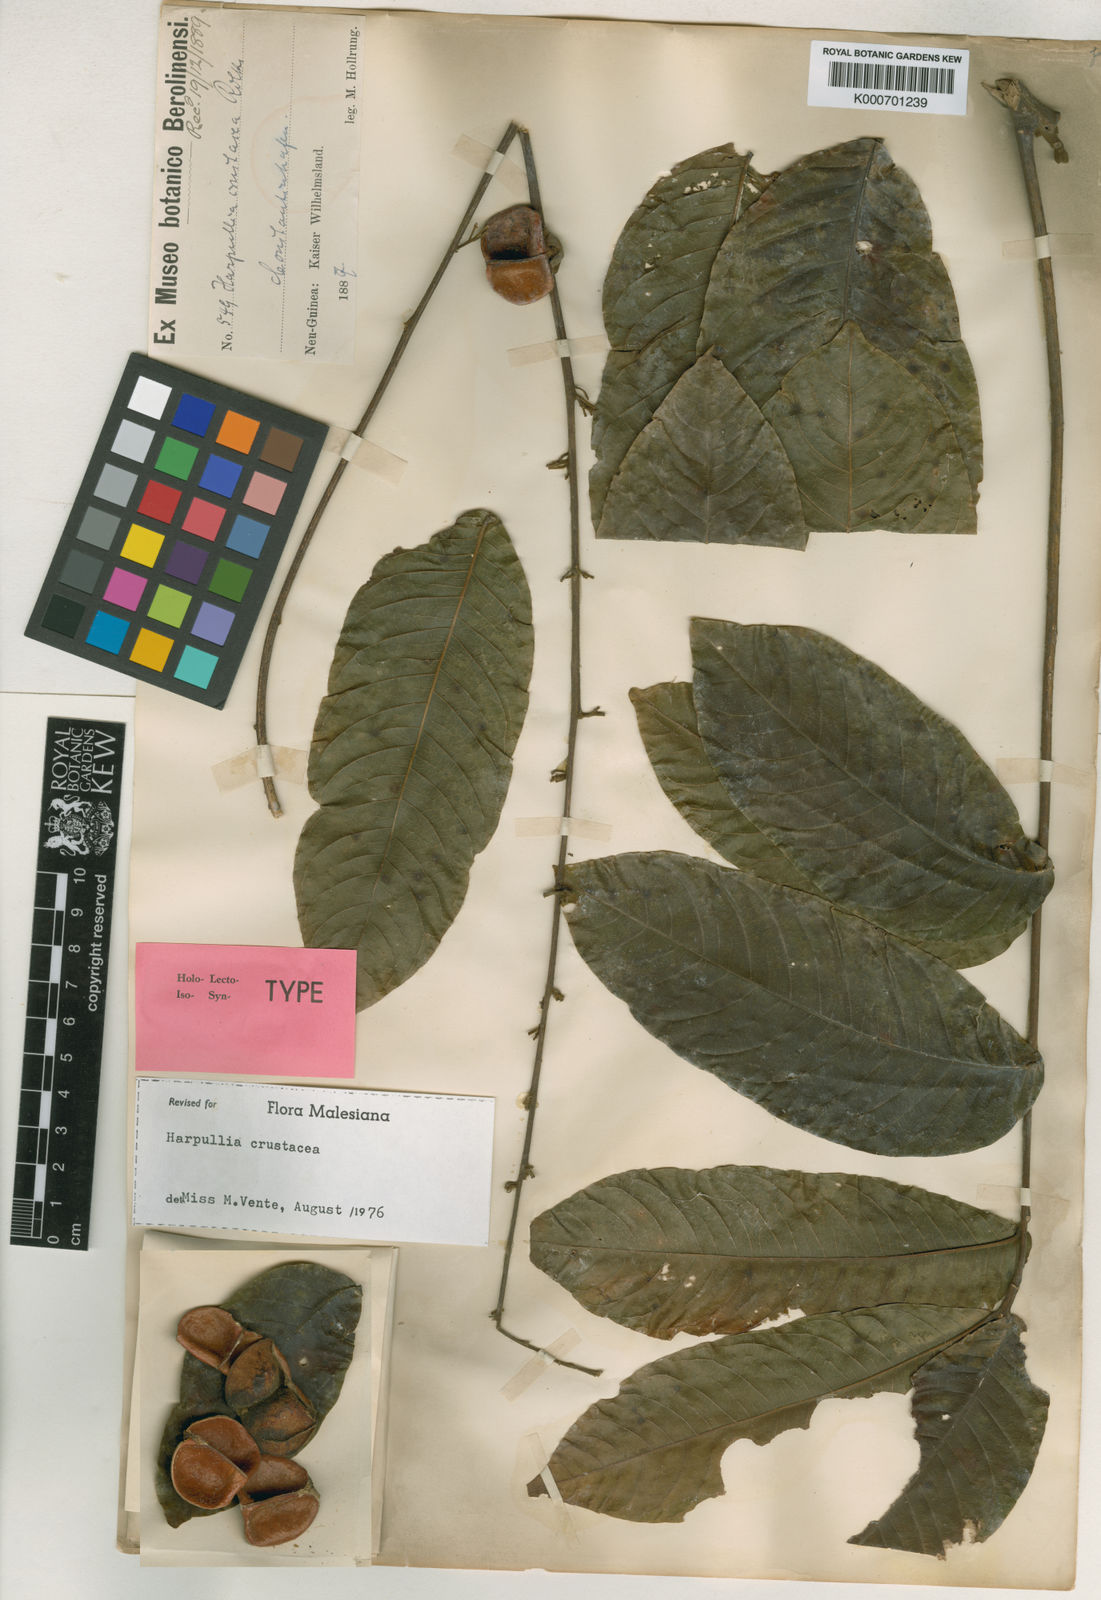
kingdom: Plantae
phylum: Tracheophyta
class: Magnoliopsida
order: Sapindales
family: Sapindaceae
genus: Harpullia
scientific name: Harpullia crustacea
